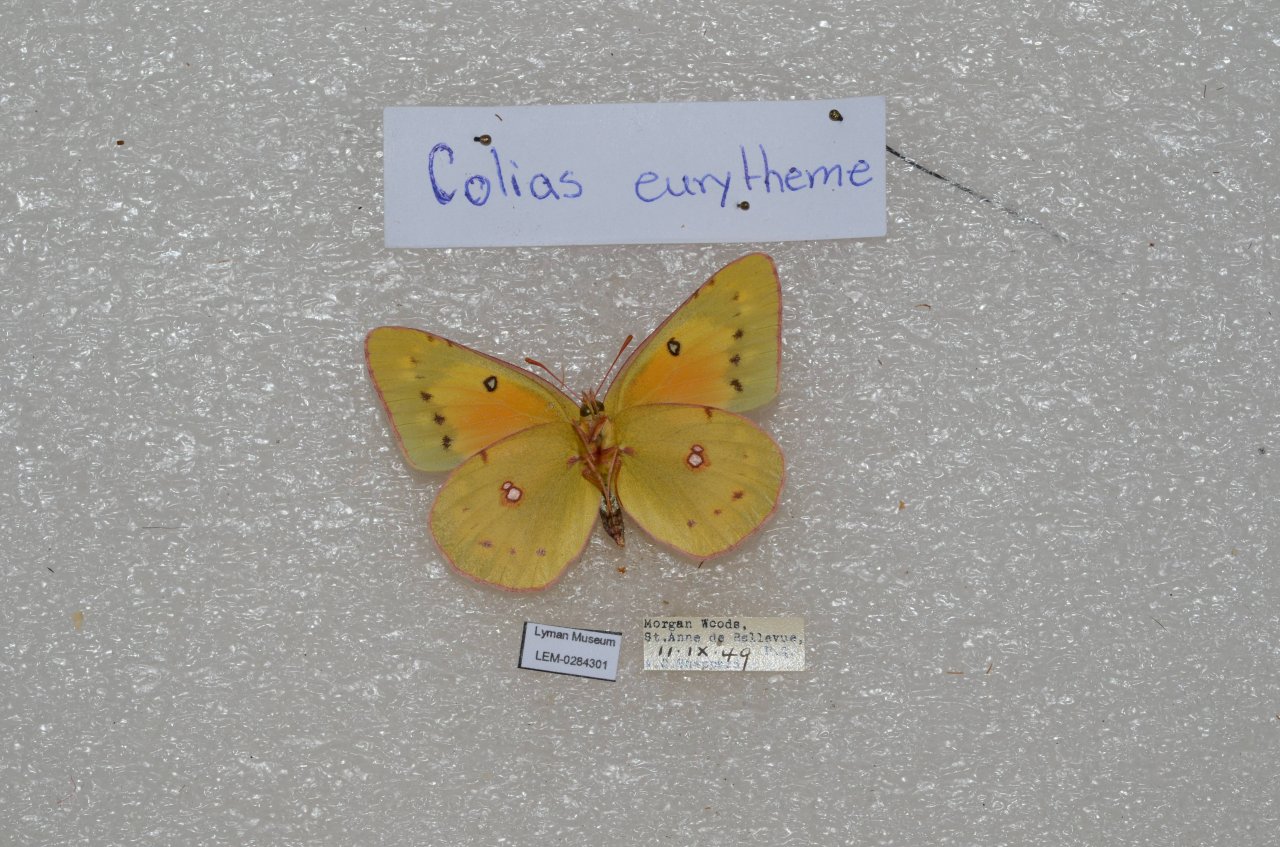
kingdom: Animalia
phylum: Arthropoda
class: Insecta
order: Lepidoptera
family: Pieridae
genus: Colias
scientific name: Colias eurytheme
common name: Orange Sulphur
